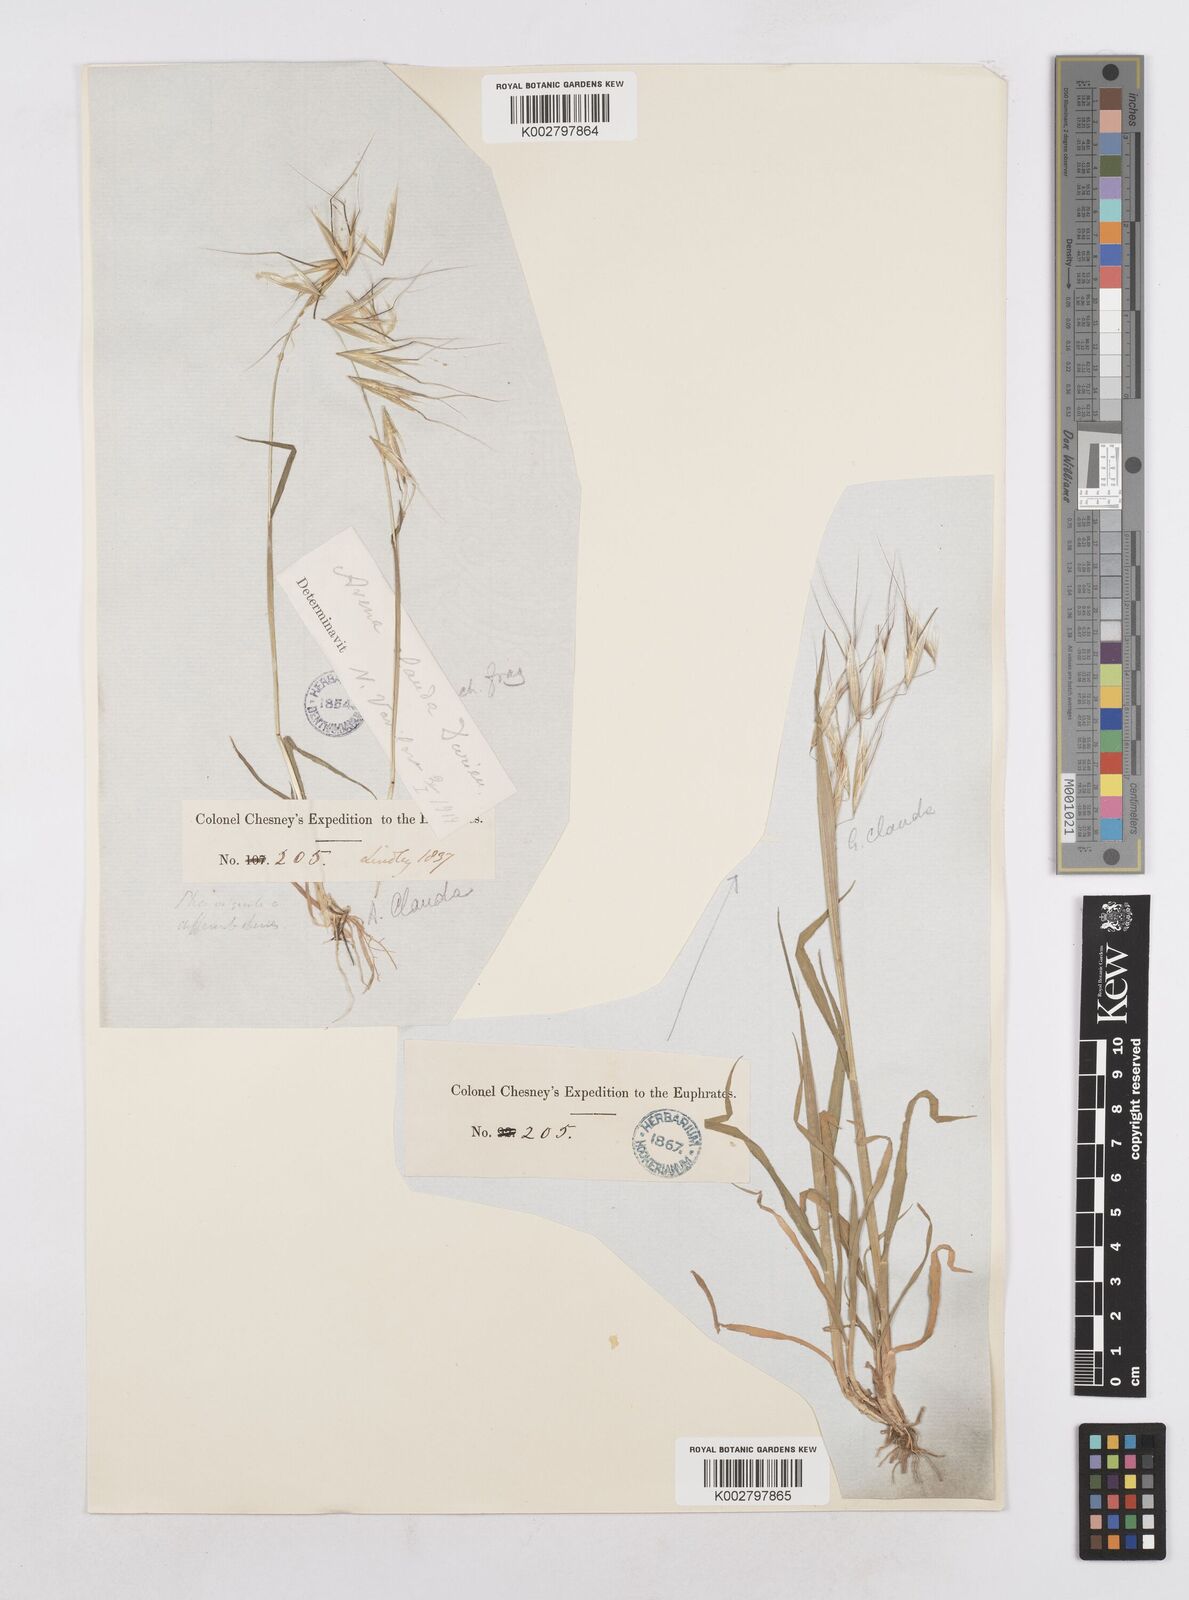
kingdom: Plantae
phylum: Tracheophyta
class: Liliopsida
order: Poales
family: Poaceae
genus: Avena
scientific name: Avena clauda
